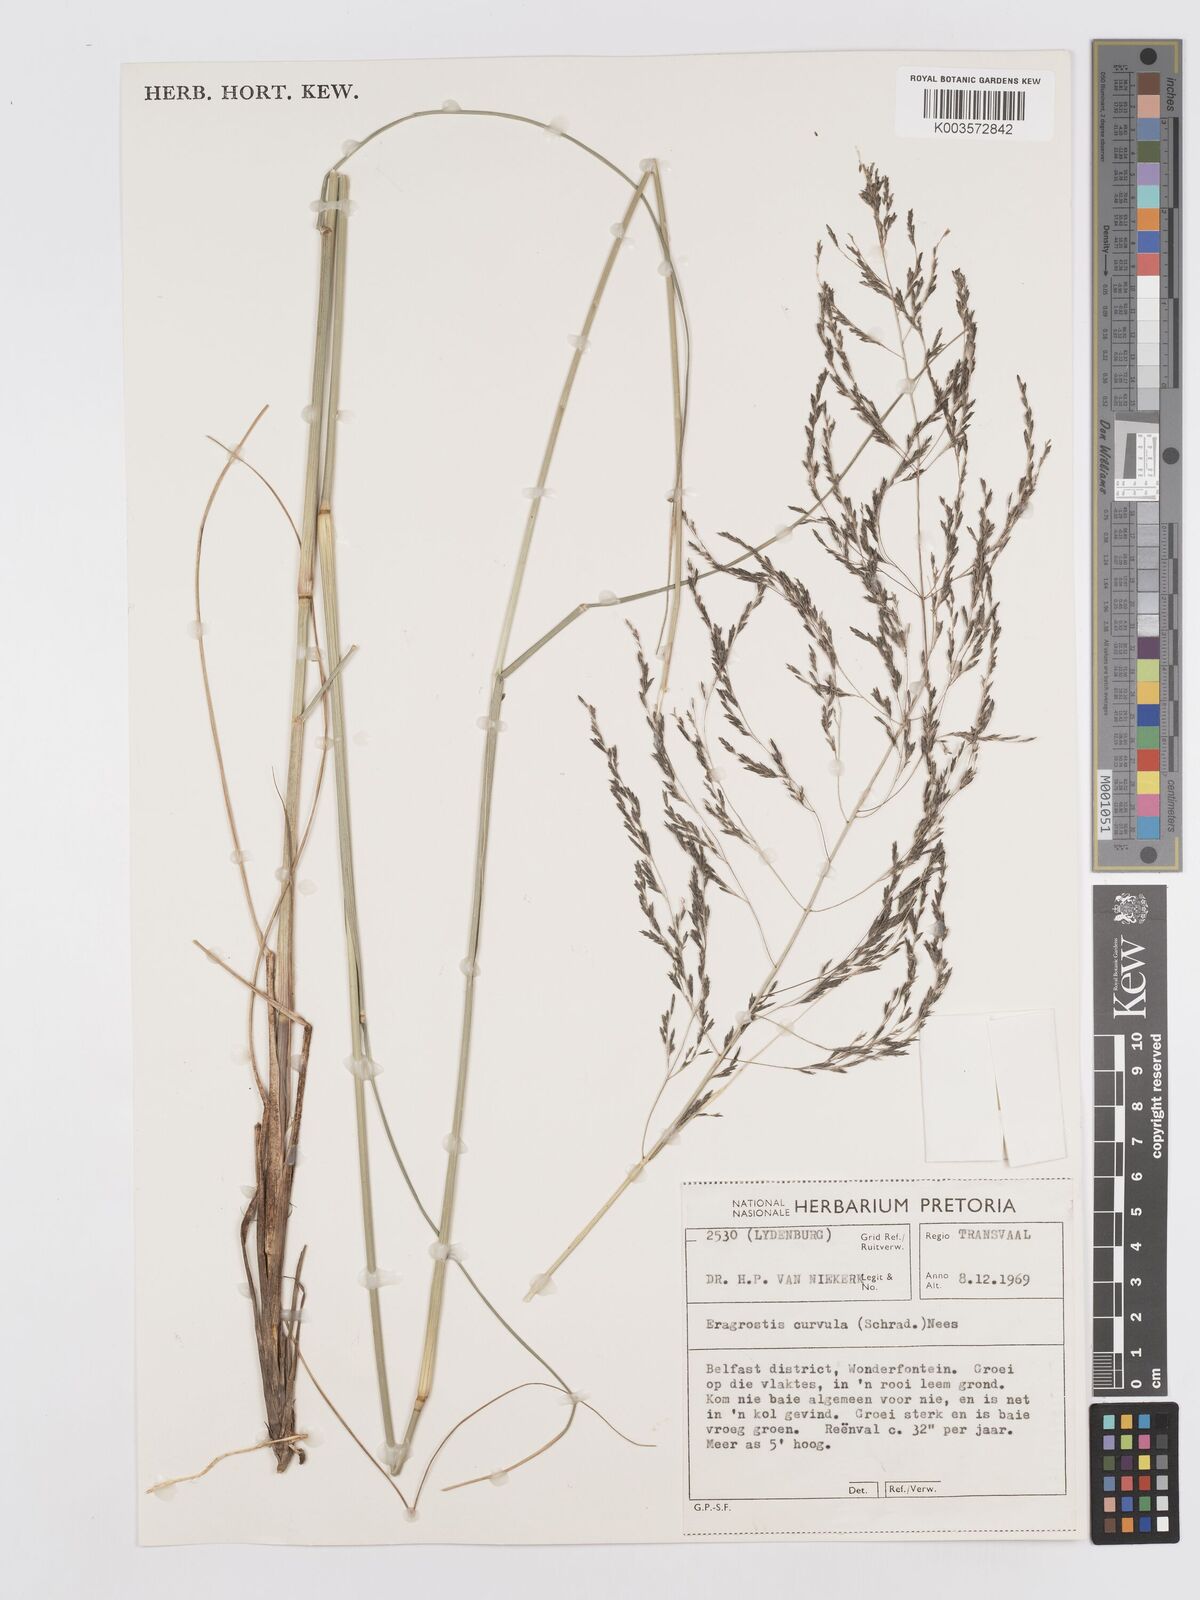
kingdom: Plantae
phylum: Tracheophyta
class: Liliopsida
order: Poales
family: Poaceae
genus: Eragrostis
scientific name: Eragrostis curvula
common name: African love-grass
